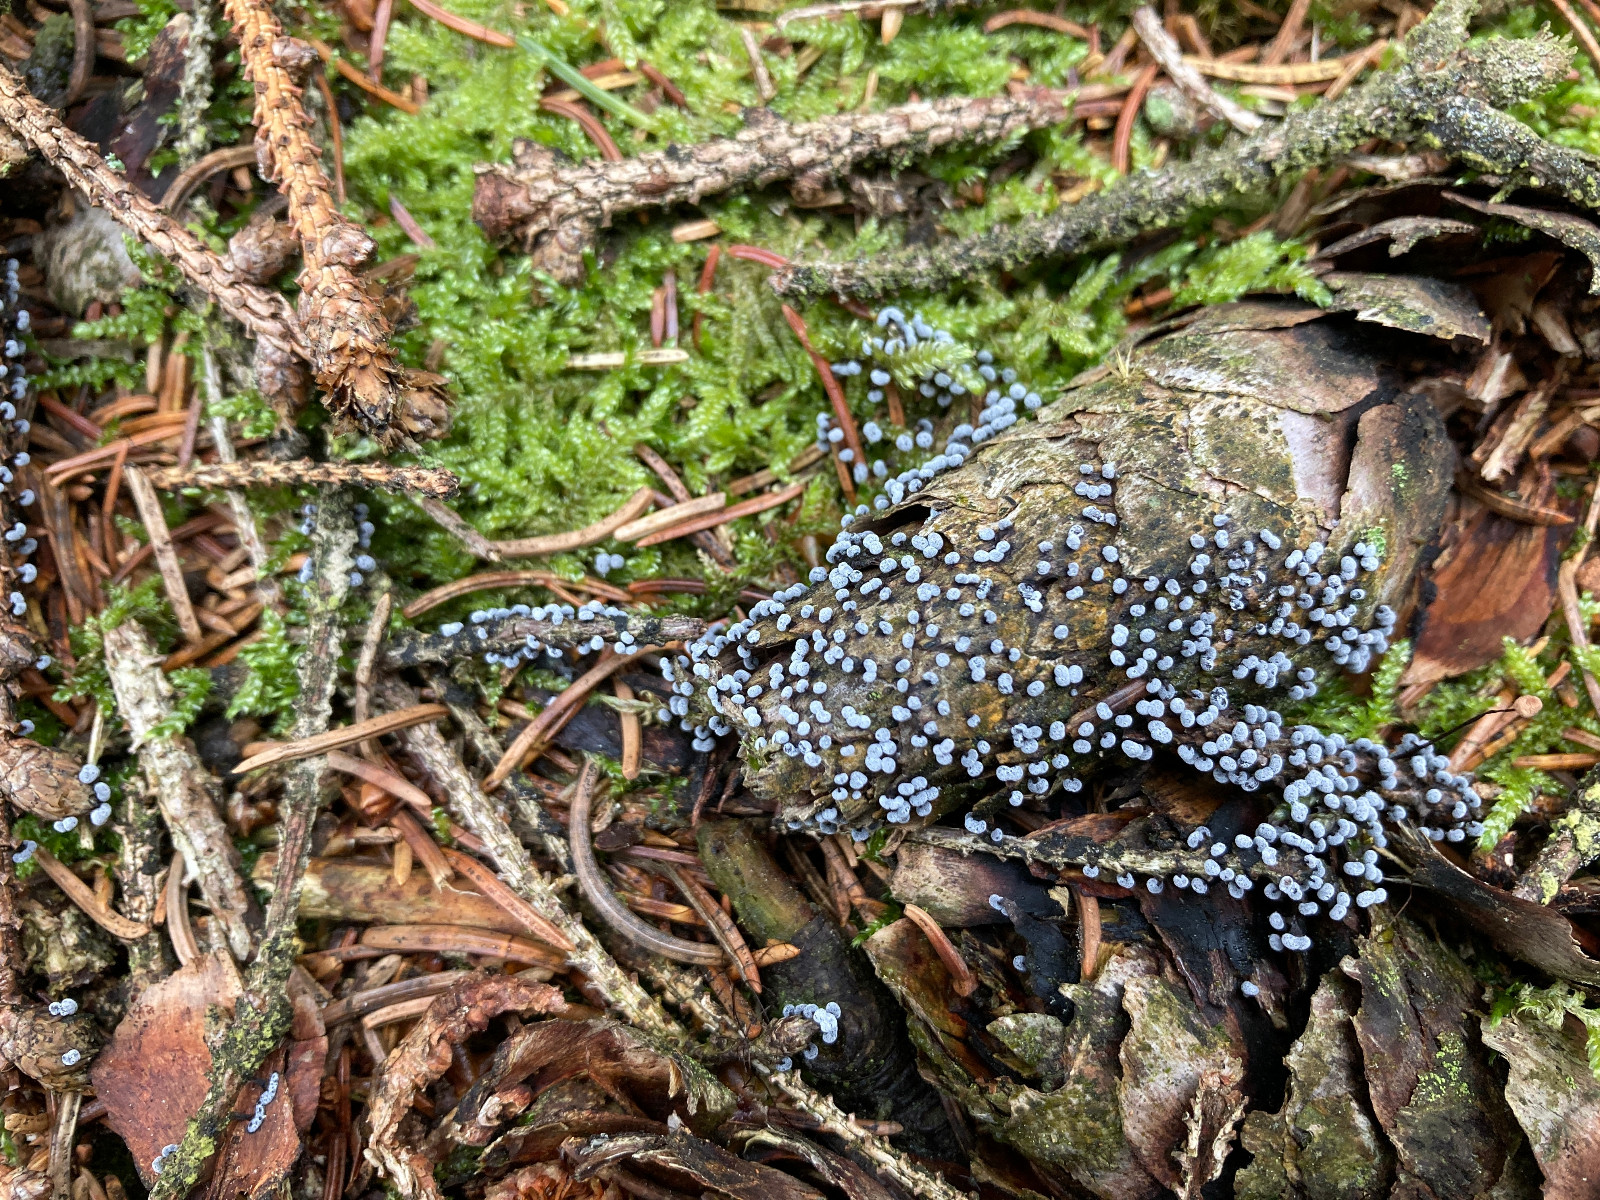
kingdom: Protozoa
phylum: Mycetozoa
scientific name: Mycetozoa
